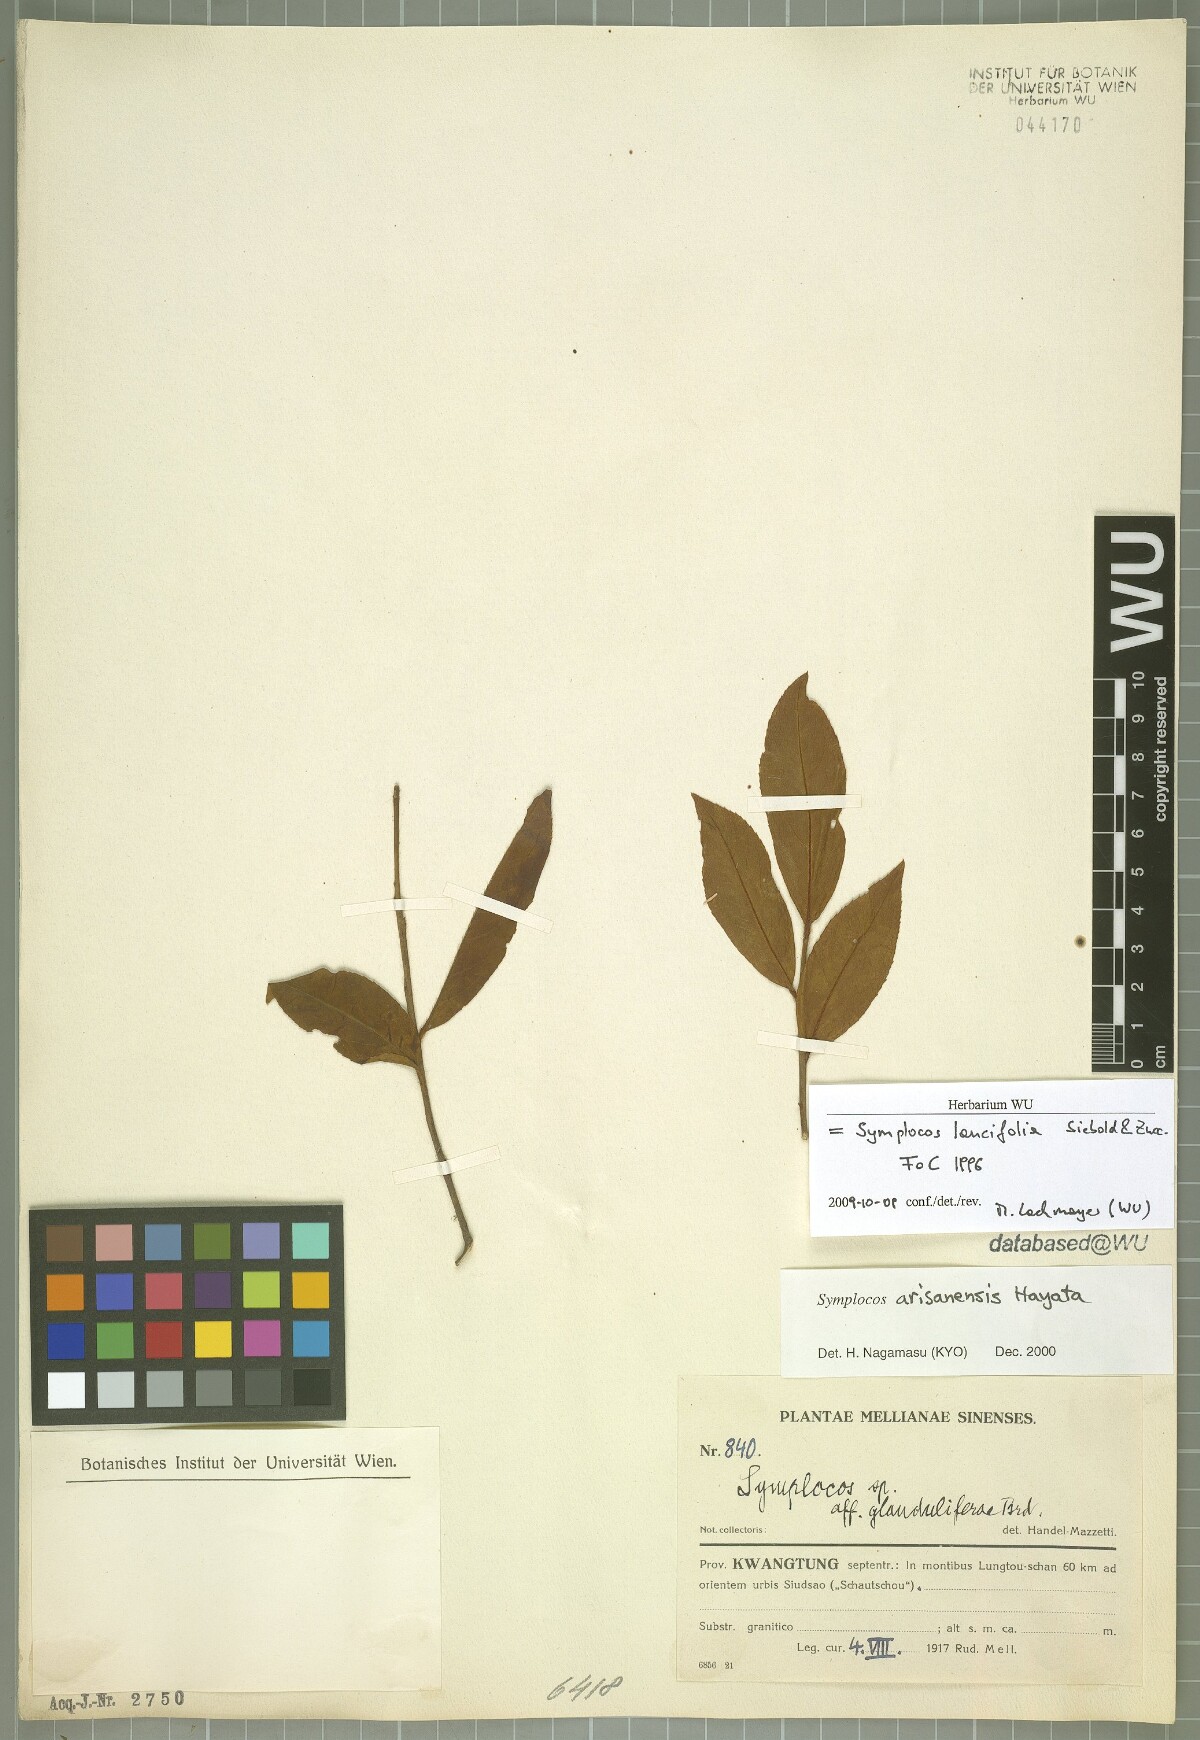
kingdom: Plantae
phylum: Tracheophyta
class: Magnoliopsida
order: Ericales
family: Symplocaceae
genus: Symplocos
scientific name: Symplocos lancifolia
